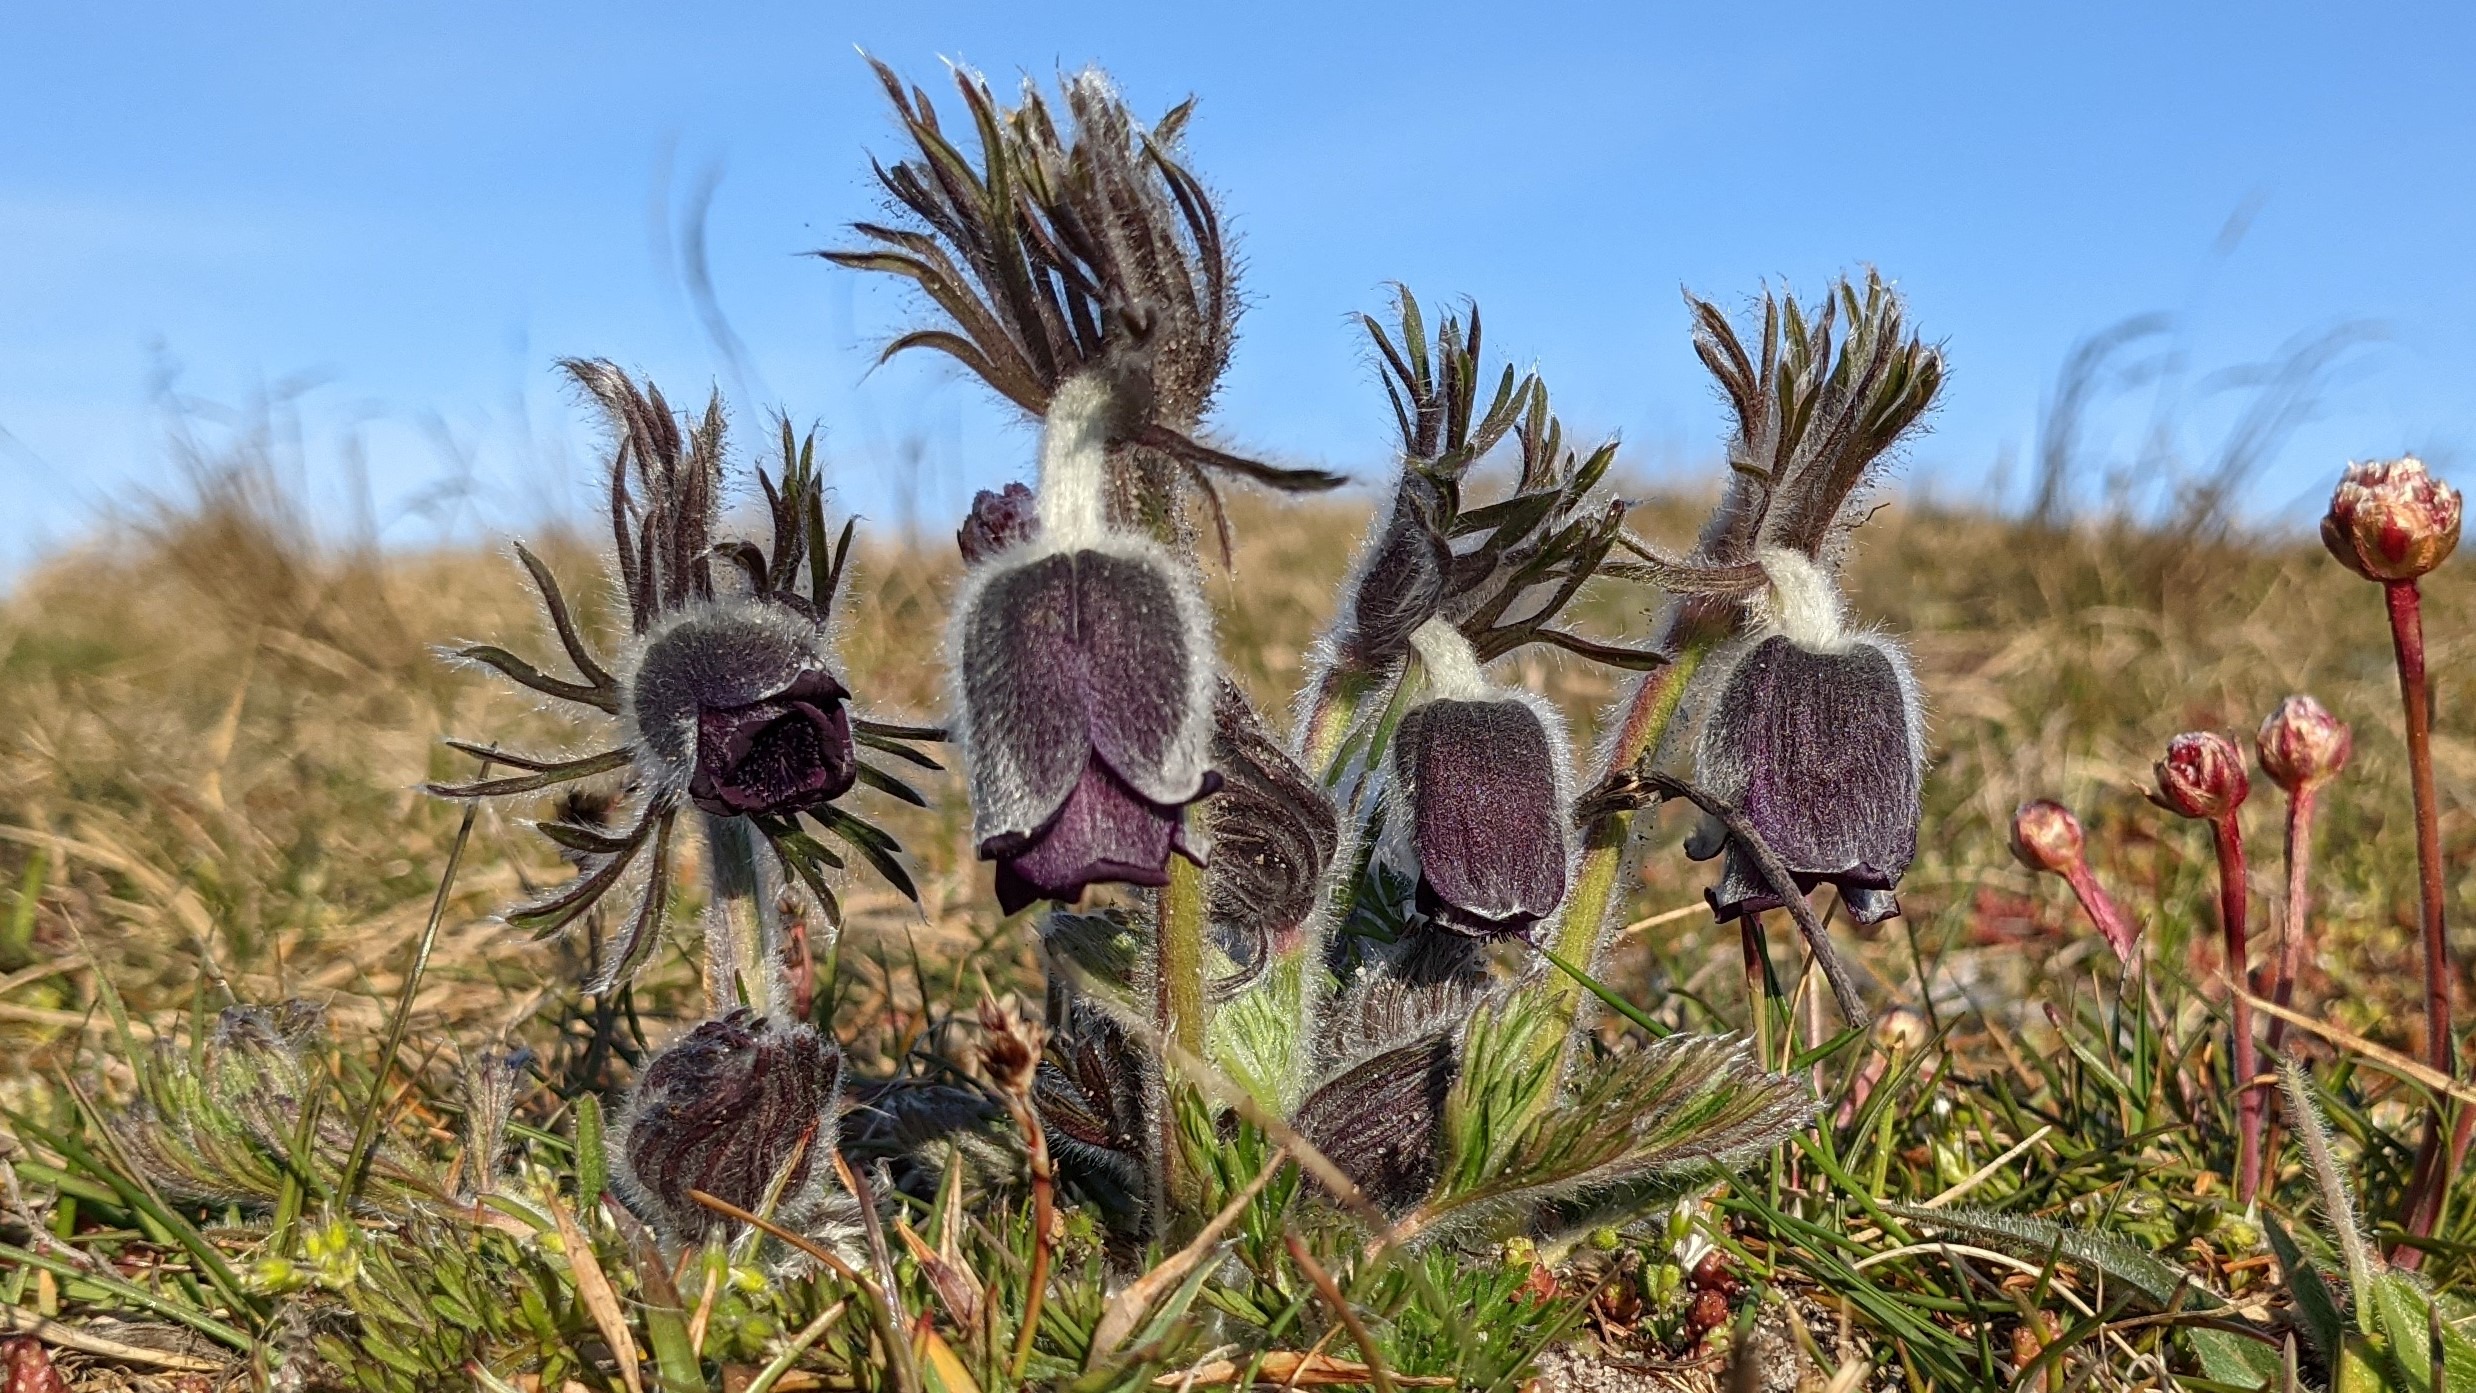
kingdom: Plantae
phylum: Tracheophyta
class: Magnoliopsida
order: Ranunculales
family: Ranunculaceae
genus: Pulsatilla
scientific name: Pulsatilla pratensis
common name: Nikkende kobjælde
